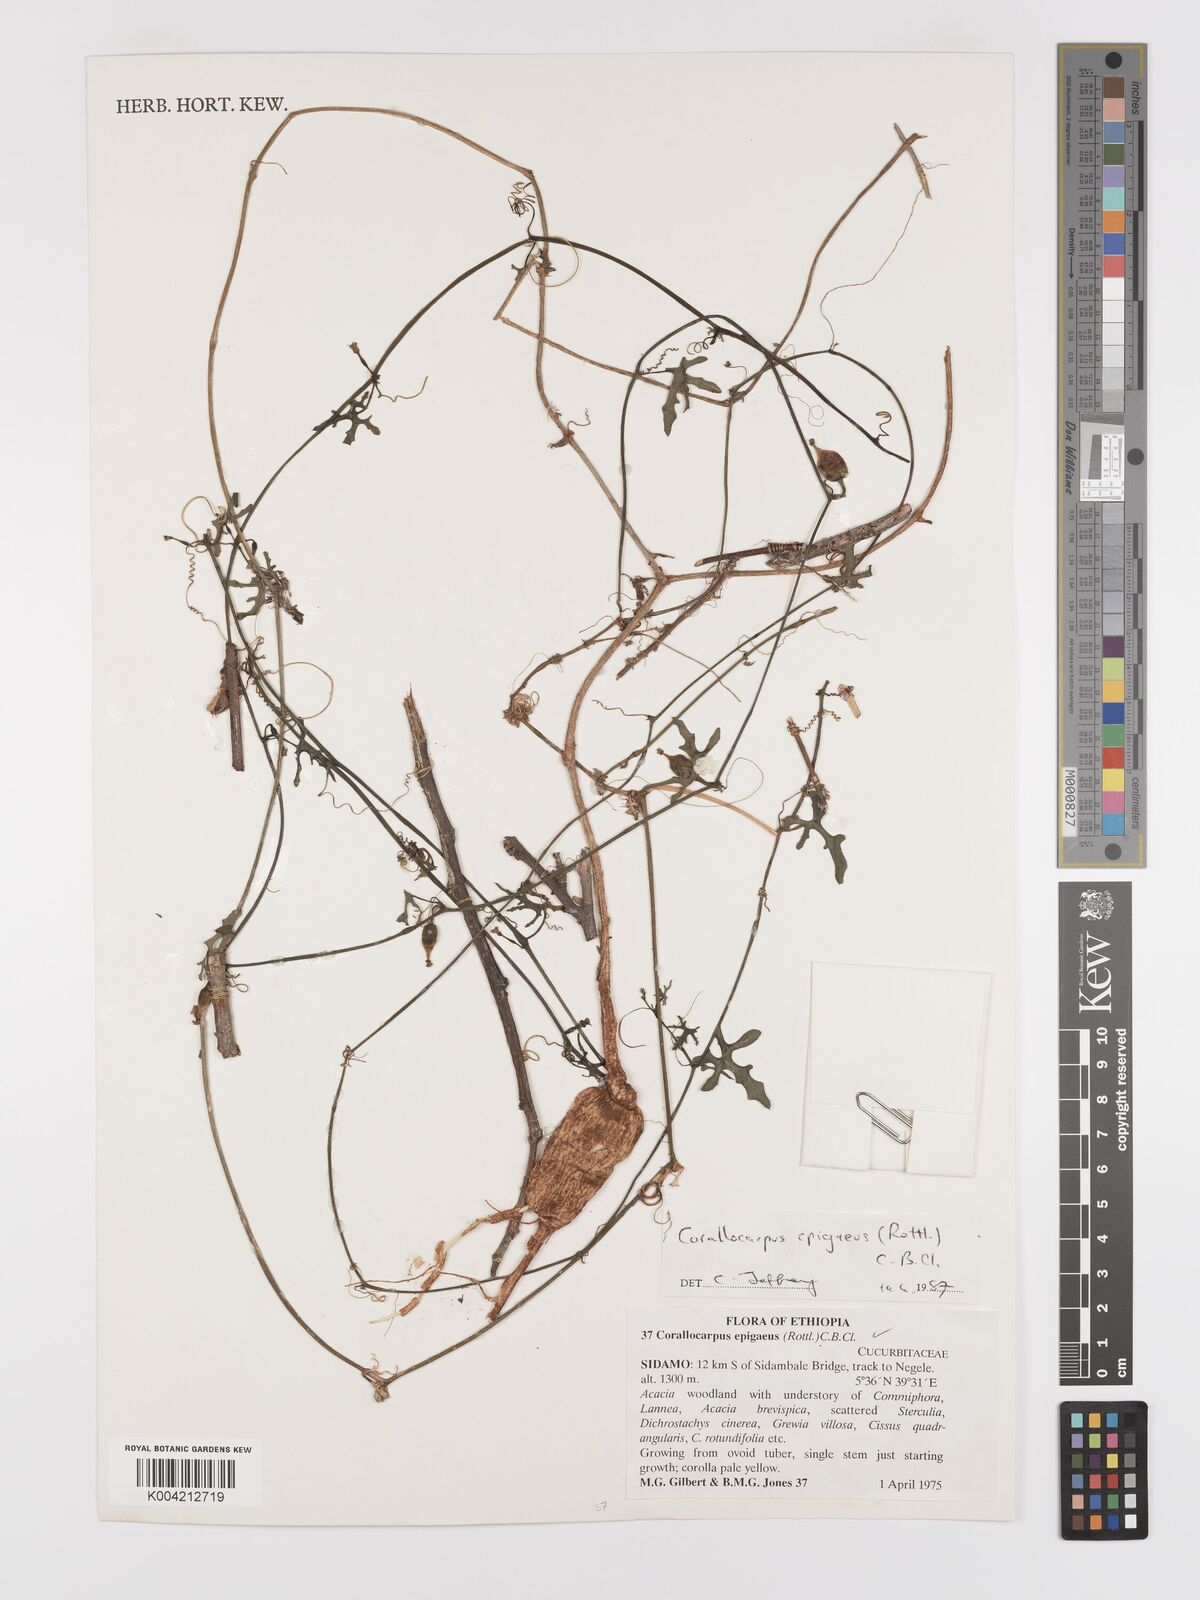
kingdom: Plantae
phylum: Tracheophyta
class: Magnoliopsida
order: Cucurbitales
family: Cucurbitaceae
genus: Corallocarpus
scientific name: Corallocarpus epigaeus
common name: Indian bryonia
